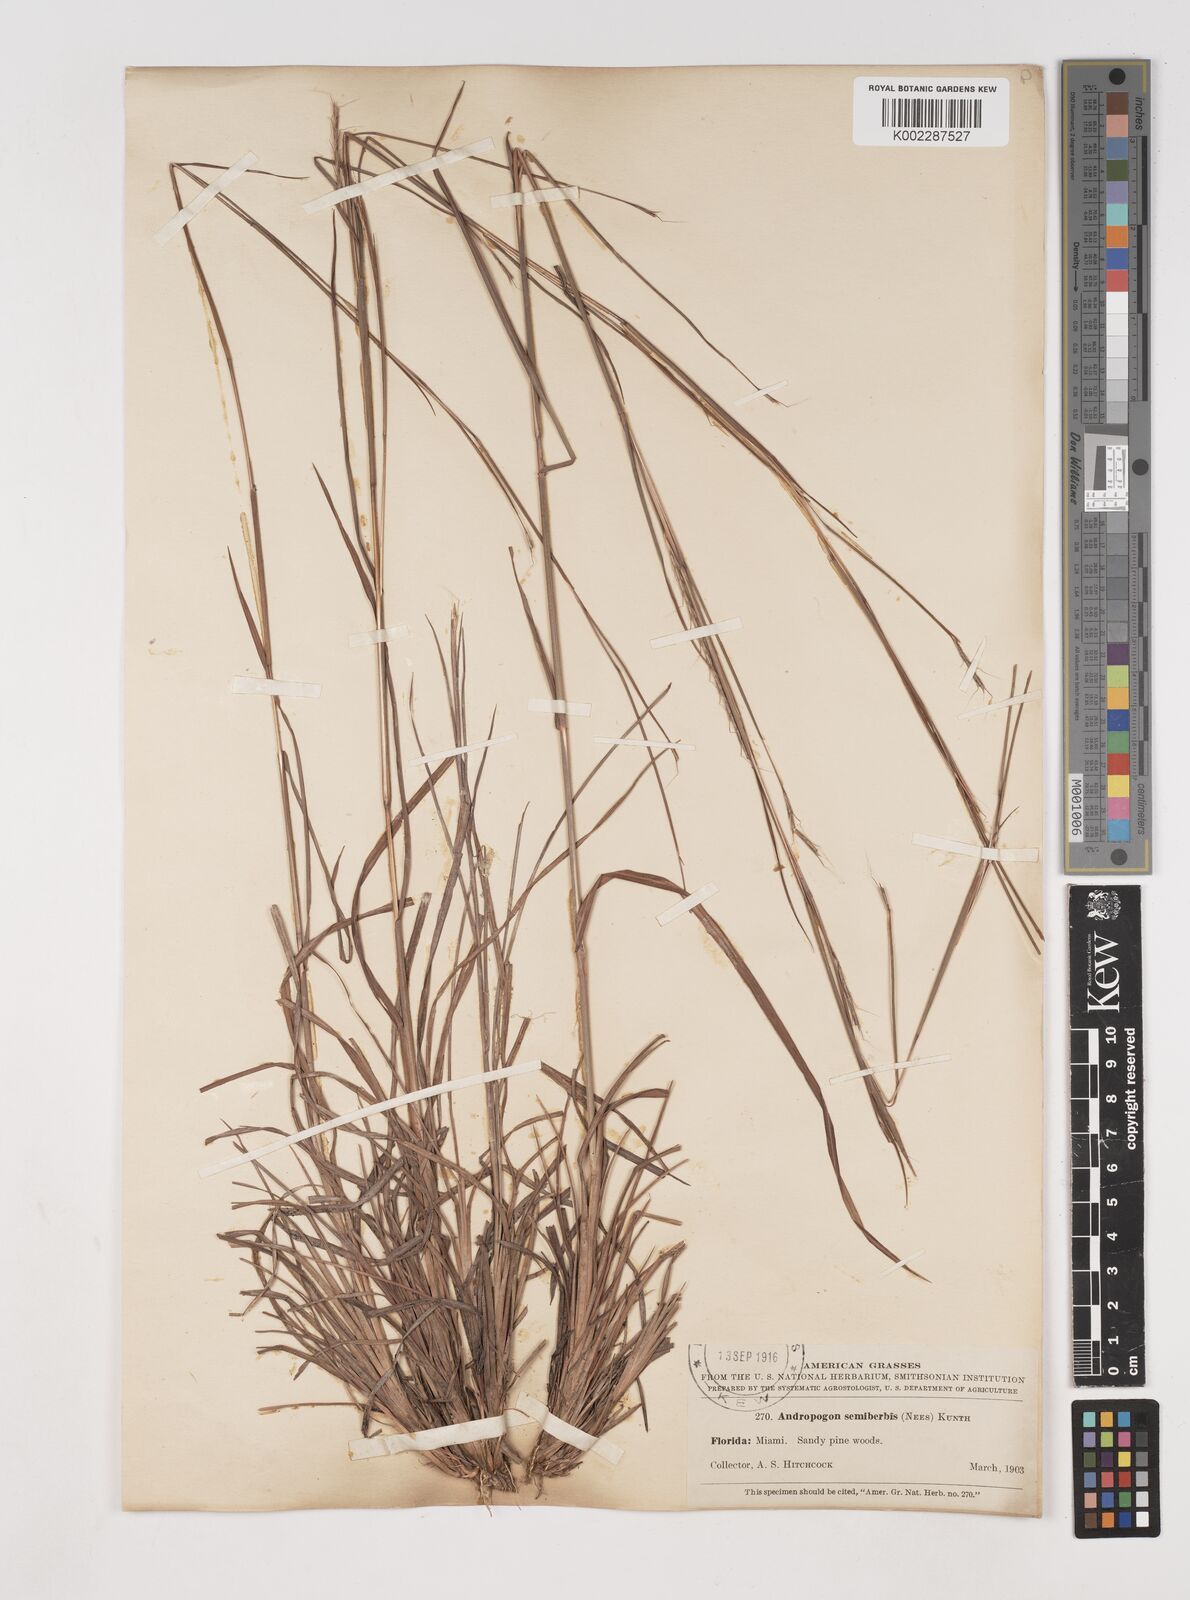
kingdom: Plantae
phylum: Tracheophyta
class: Liliopsida
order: Poales
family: Poaceae
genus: Schizachyrium
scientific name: Schizachyrium sanguineum
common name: Crimson bluestem
